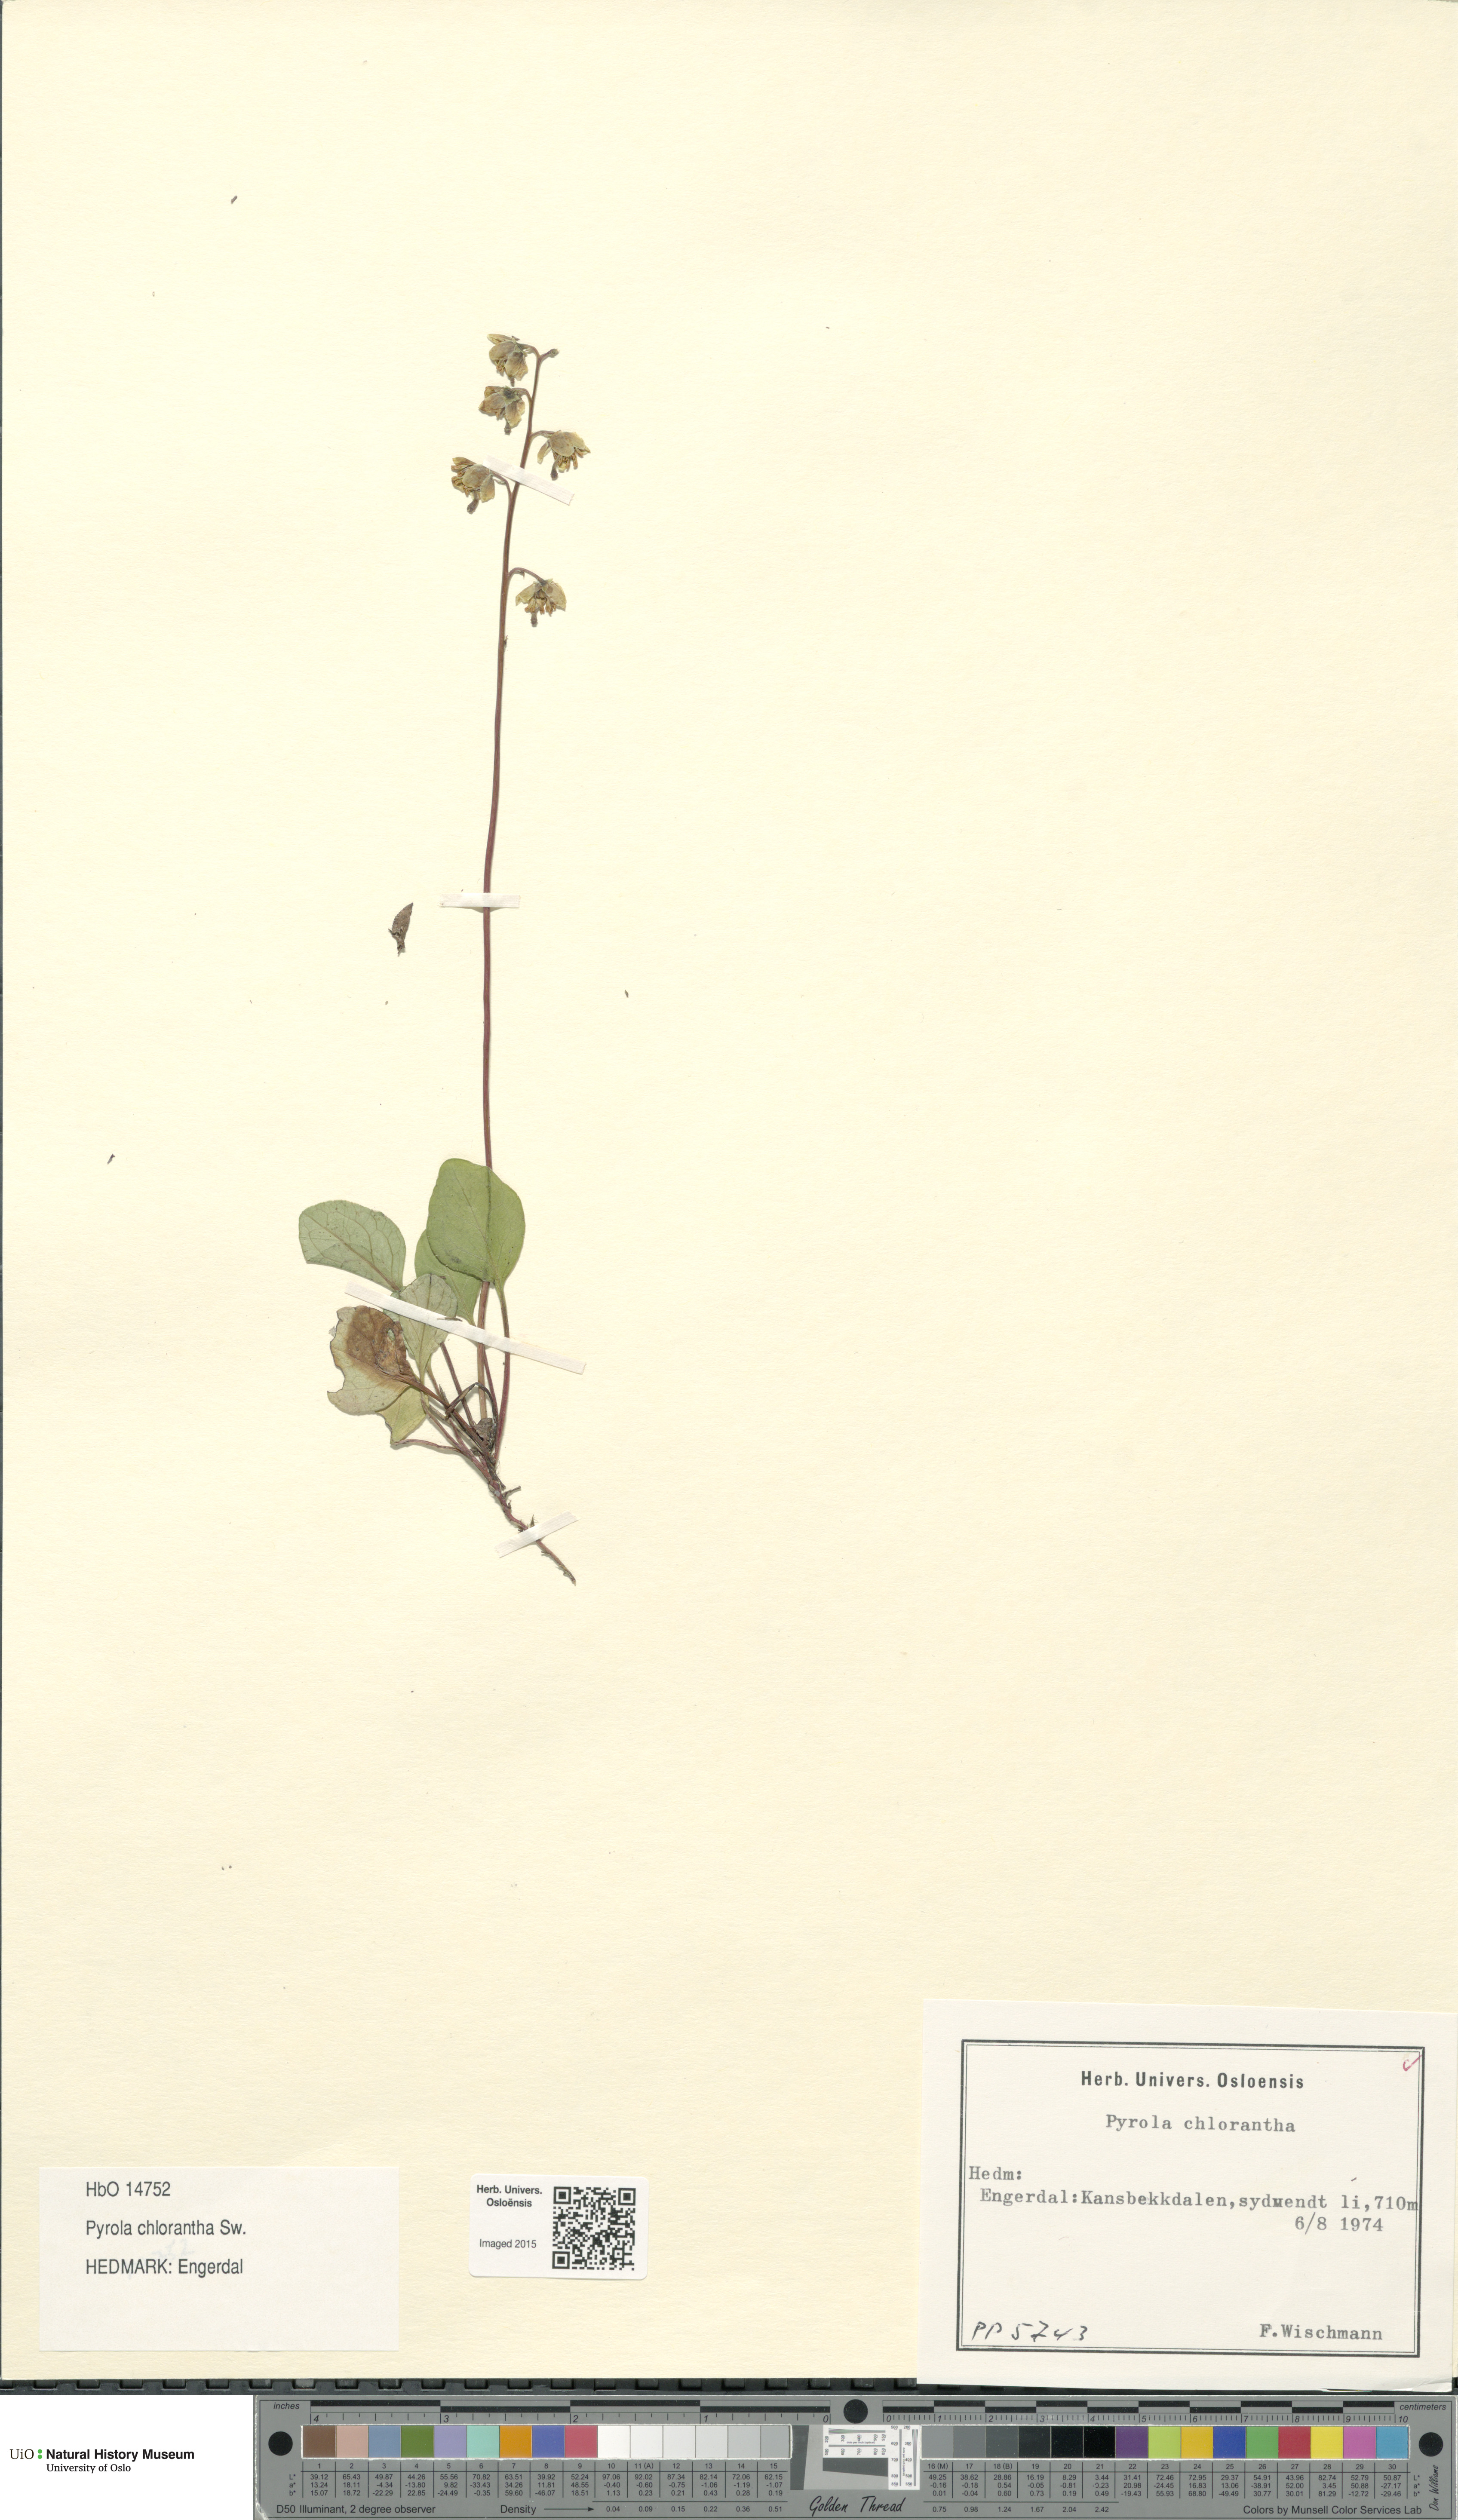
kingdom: Plantae
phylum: Tracheophyta
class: Magnoliopsida
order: Ericales
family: Ericaceae
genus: Pyrola
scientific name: Pyrola chlorantha
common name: Green wintergreen
